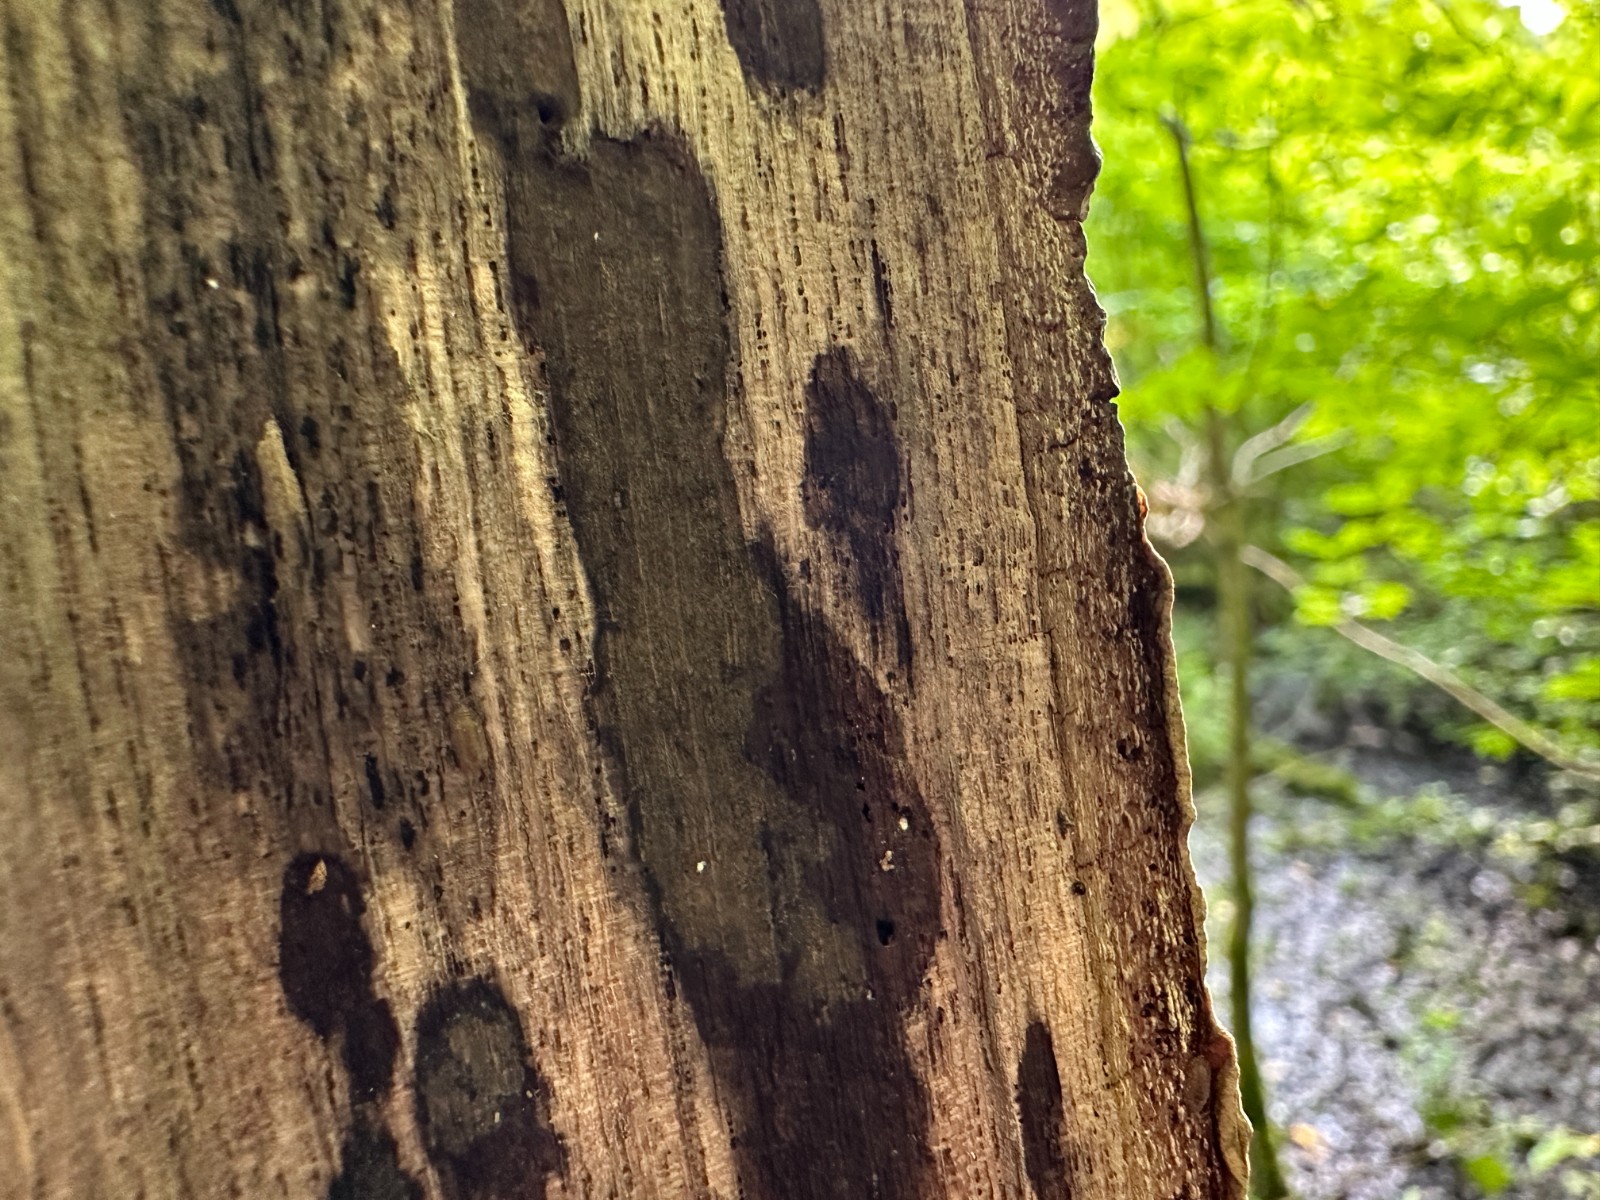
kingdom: Fungi
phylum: Ascomycota
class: Sordariomycetes
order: Xylariales
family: Hypoxylaceae
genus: Hypoxylon
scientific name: Hypoxylon petriniae
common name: nedsænket kulbær
